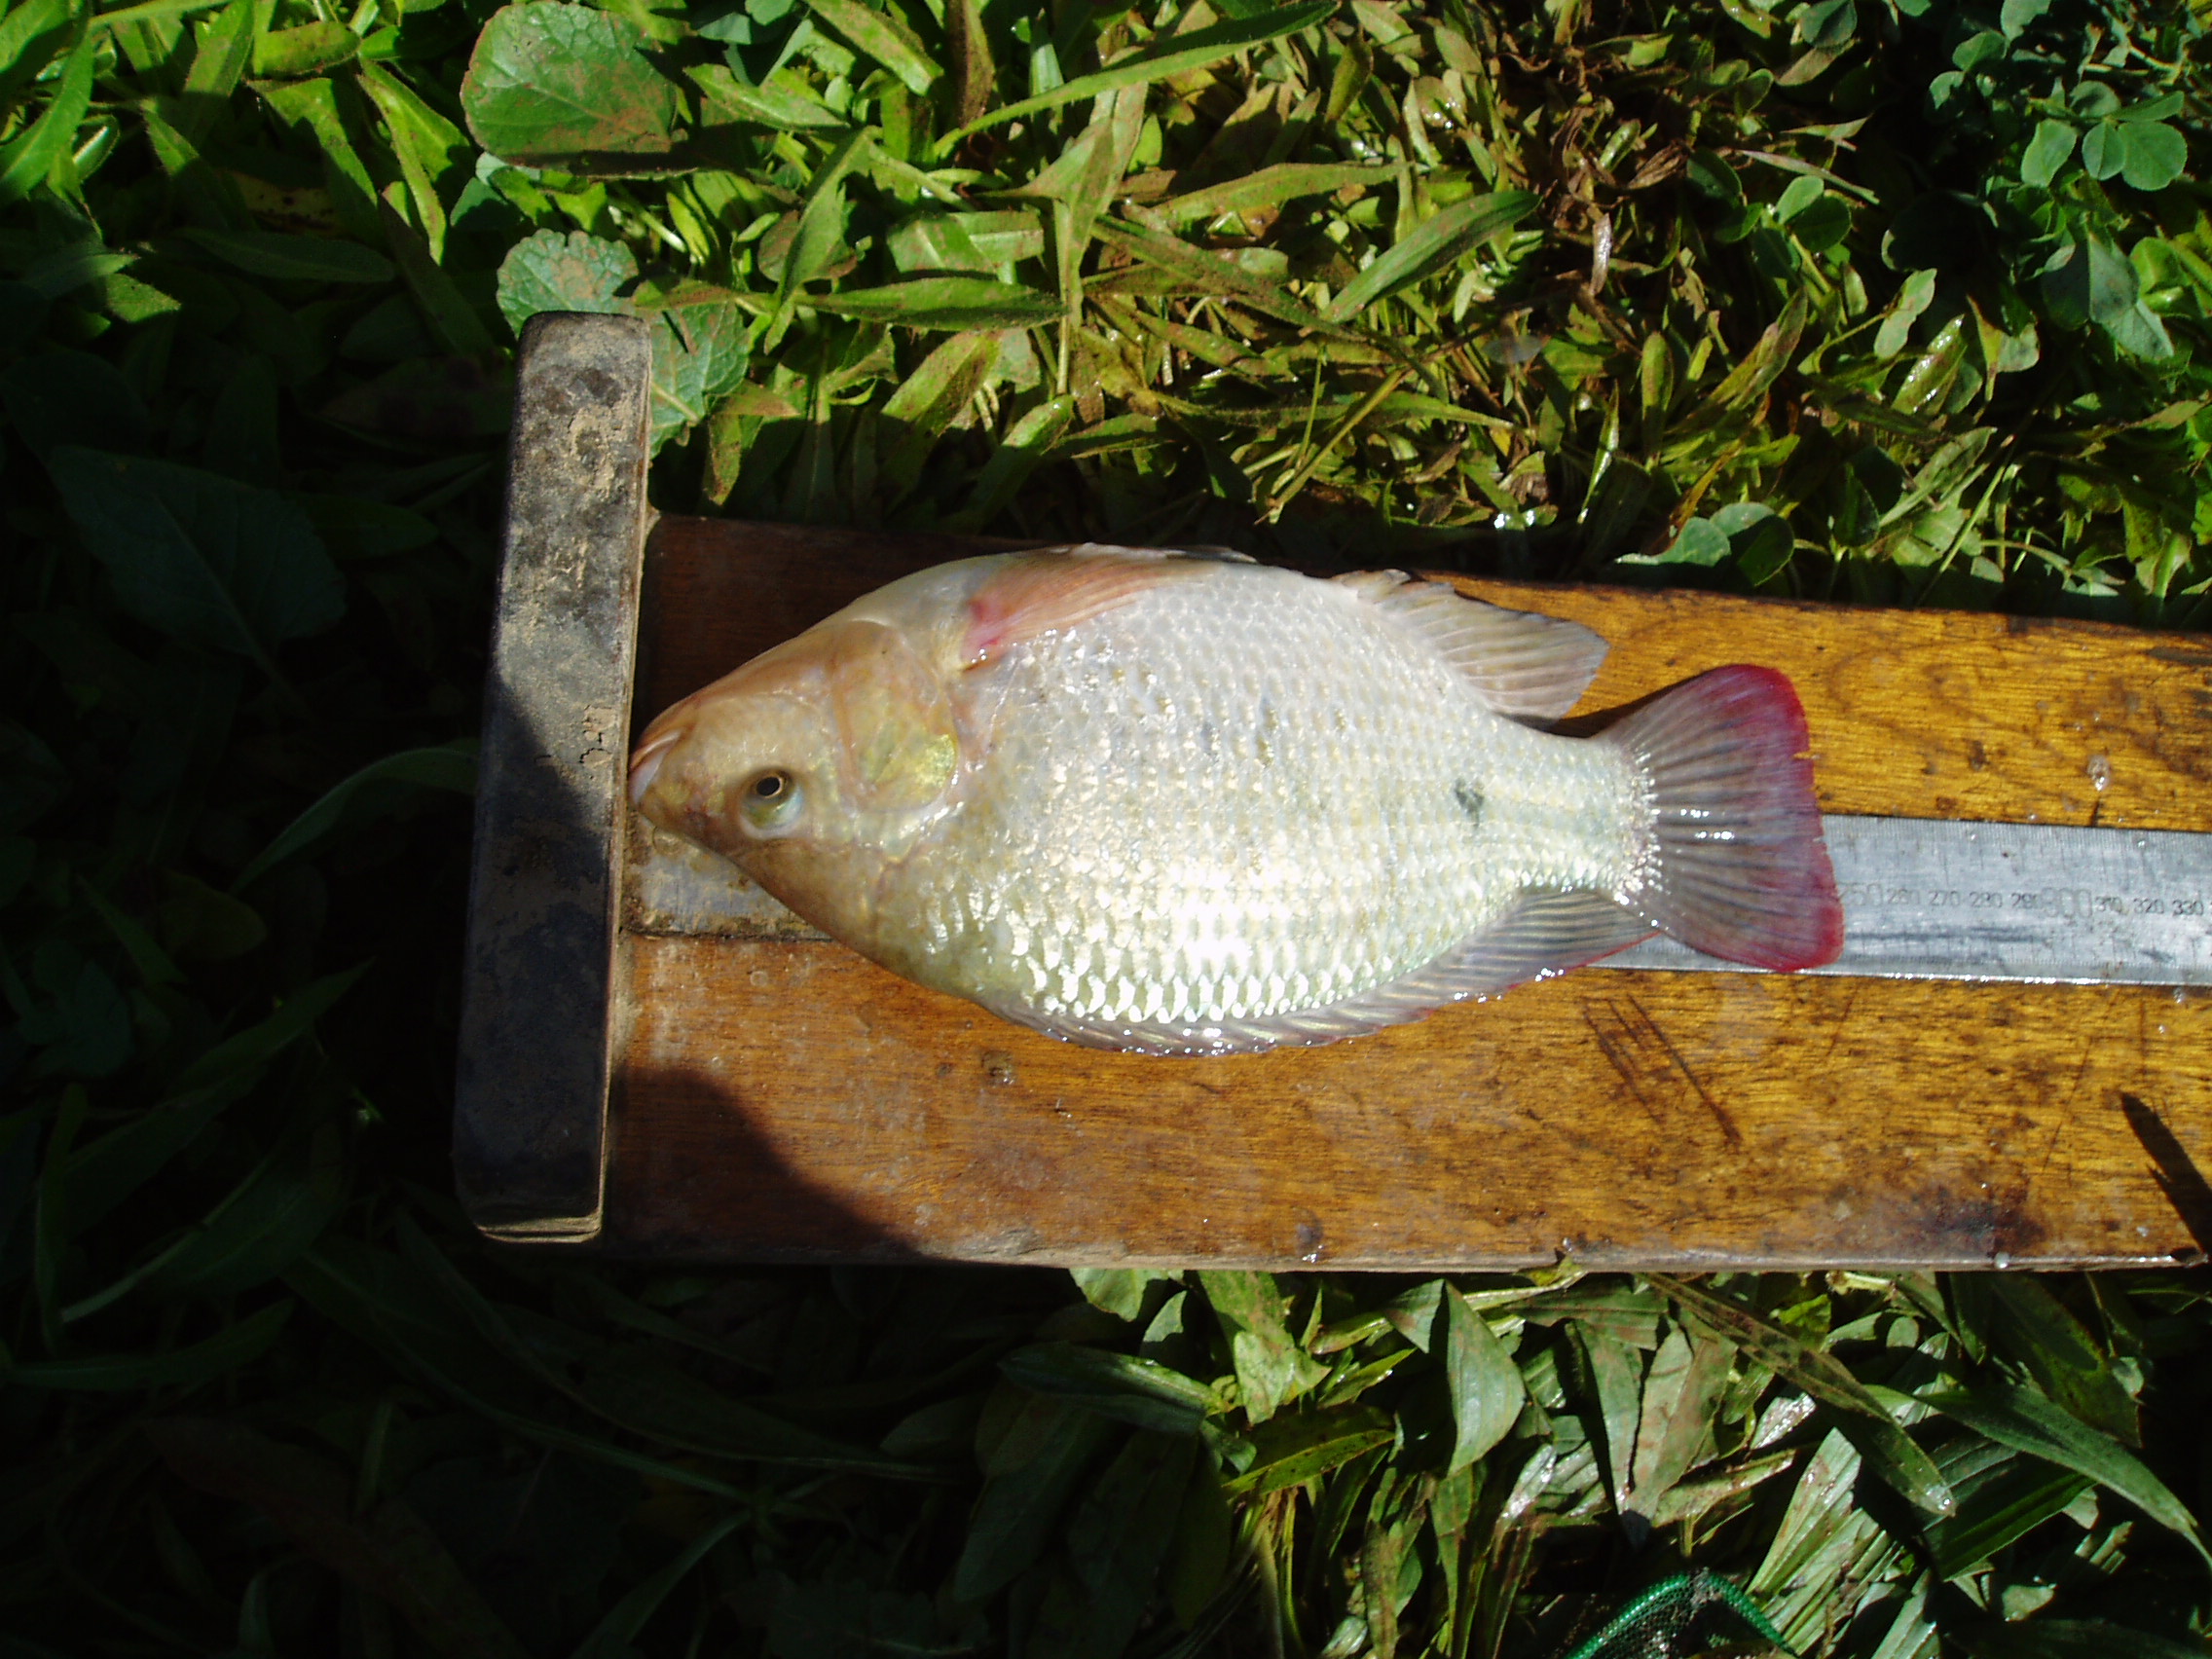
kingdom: Animalia
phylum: Chordata
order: Perciformes
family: Cichlidae
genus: Oreochromis
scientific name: Oreochromis mossambicus
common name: Mozambique tilapia
